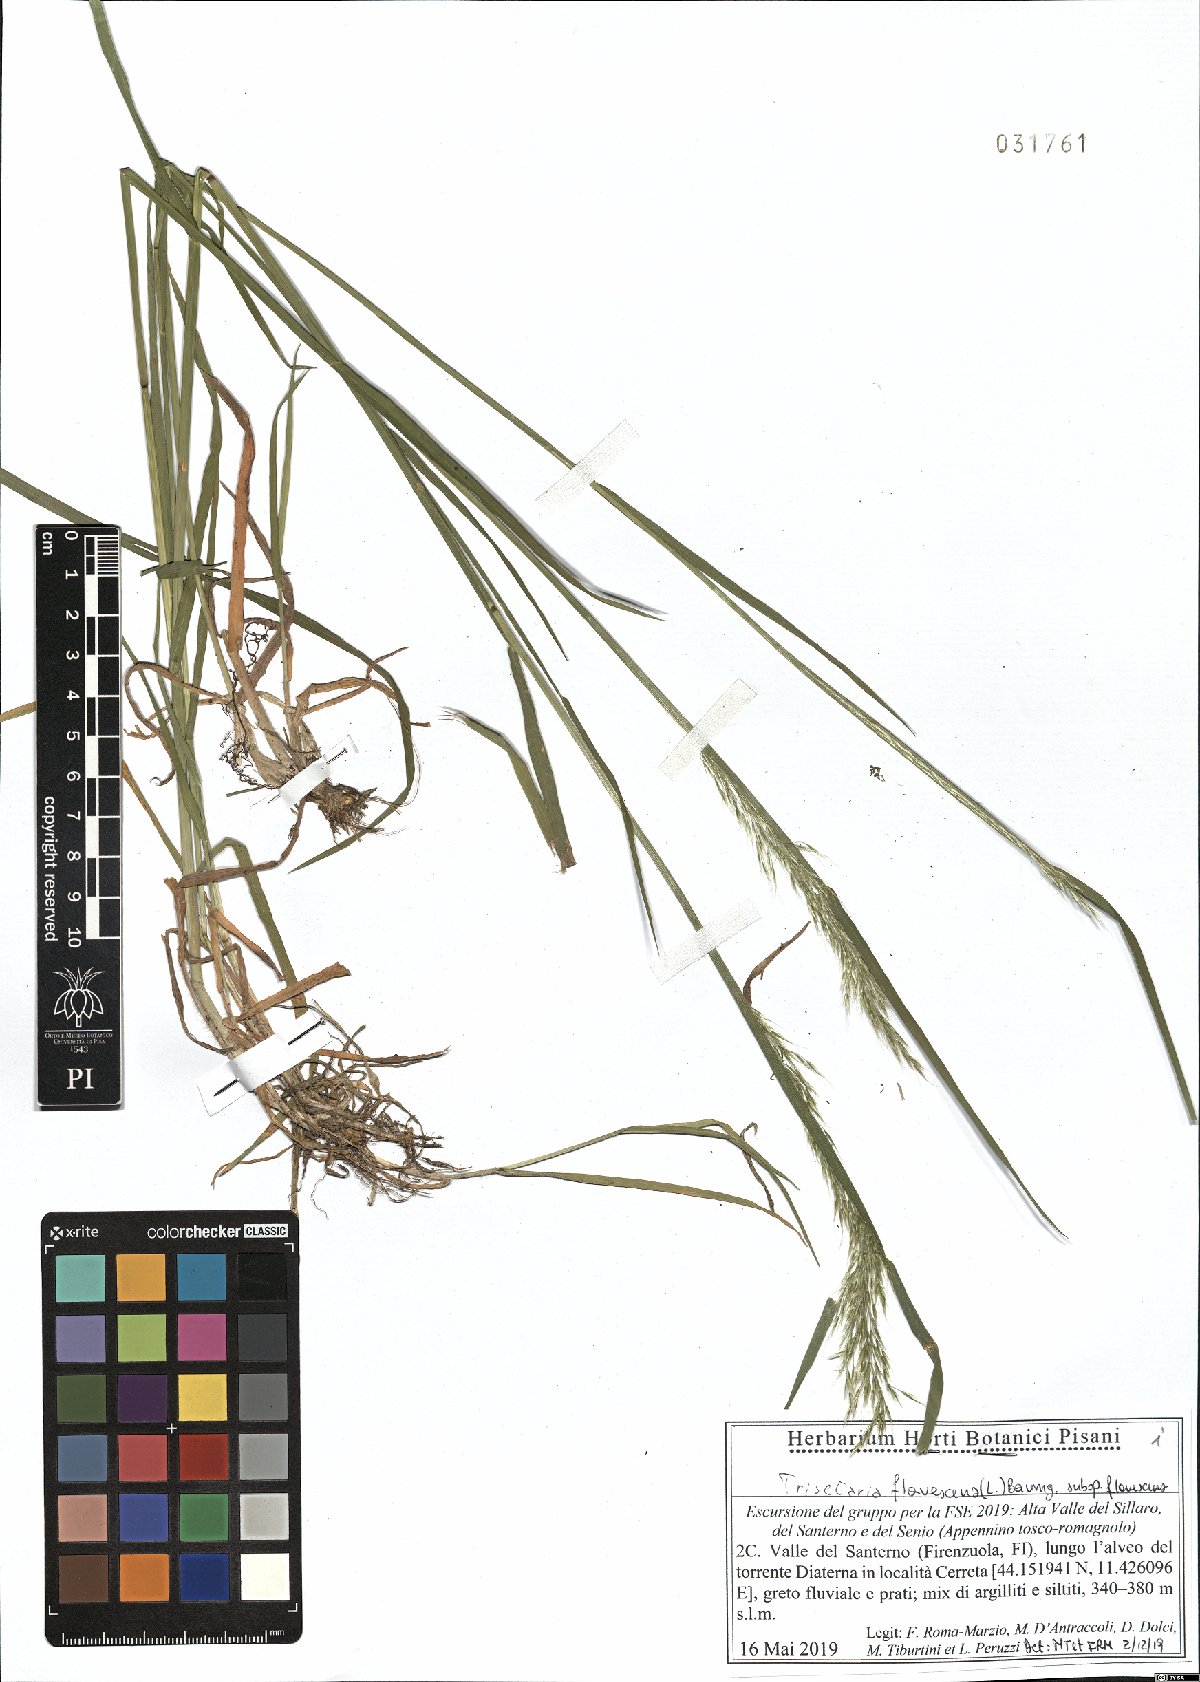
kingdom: Plantae
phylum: Tracheophyta
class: Liliopsida
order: Poales
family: Poaceae
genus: Trisetum
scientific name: Trisetum flavescens
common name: Yellow oat-grass
